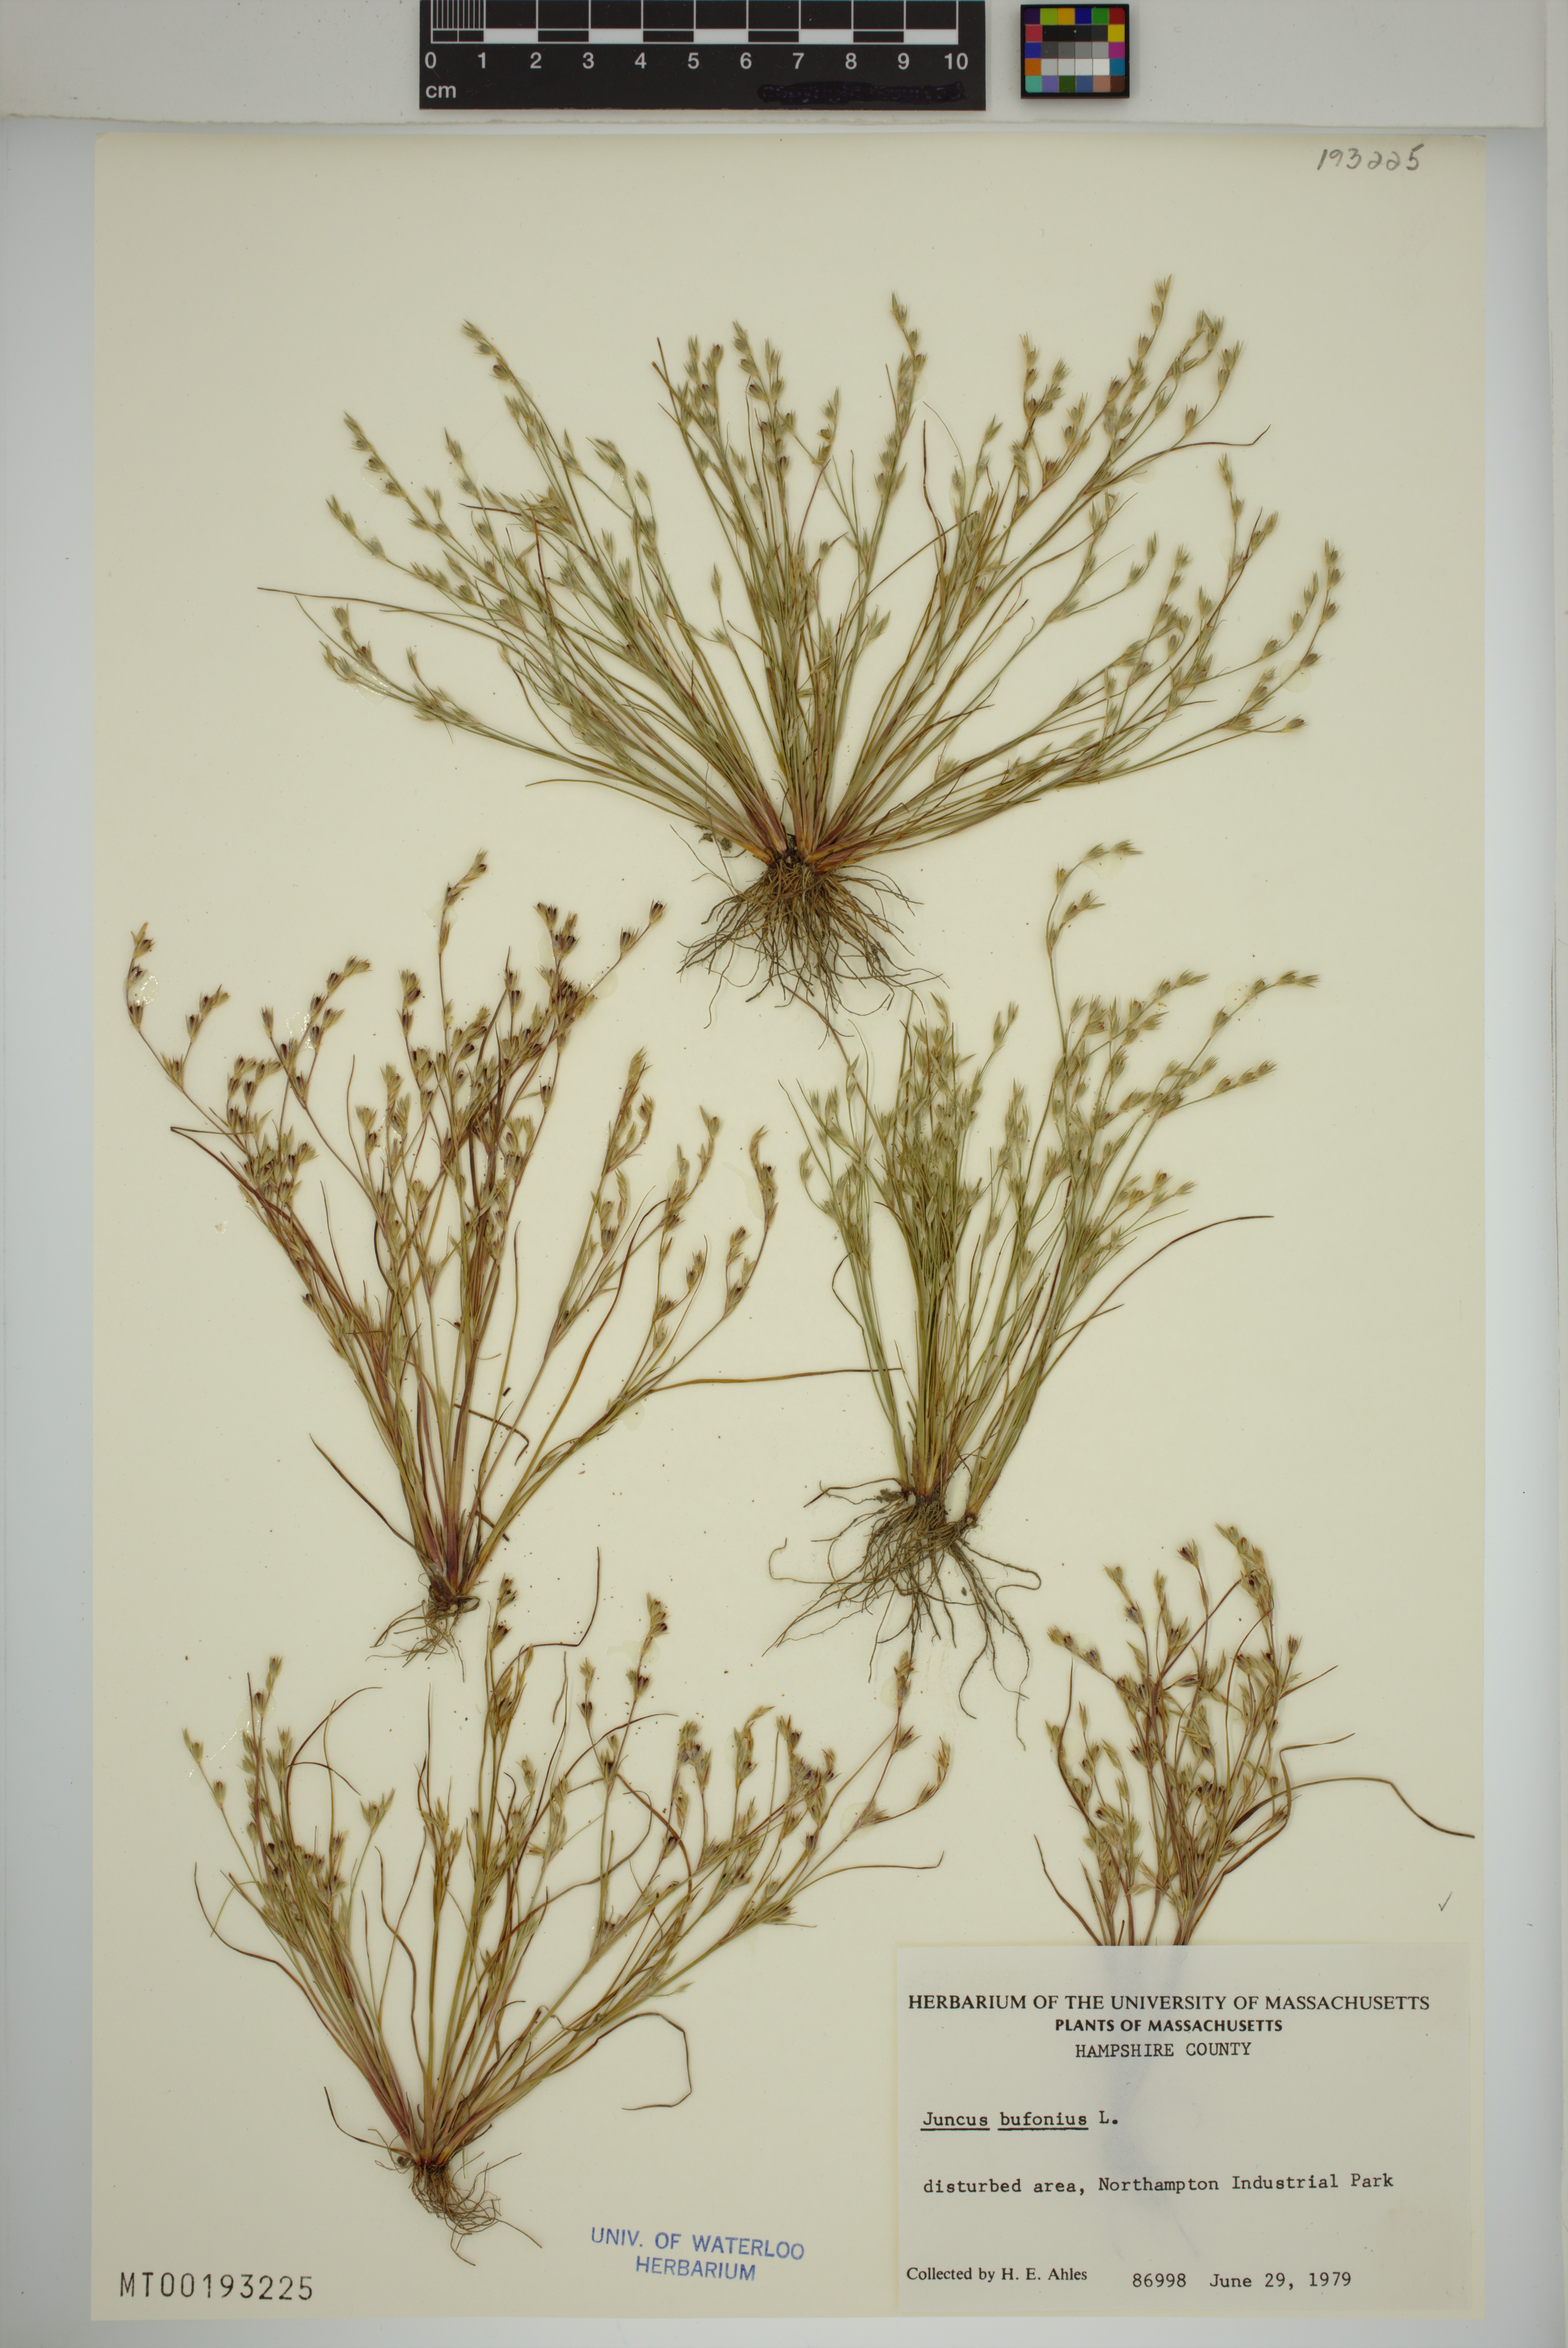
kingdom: Plantae
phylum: Tracheophyta
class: Liliopsida
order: Poales
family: Juncaceae
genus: Juncus
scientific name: Juncus bufonius
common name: Toad rush
